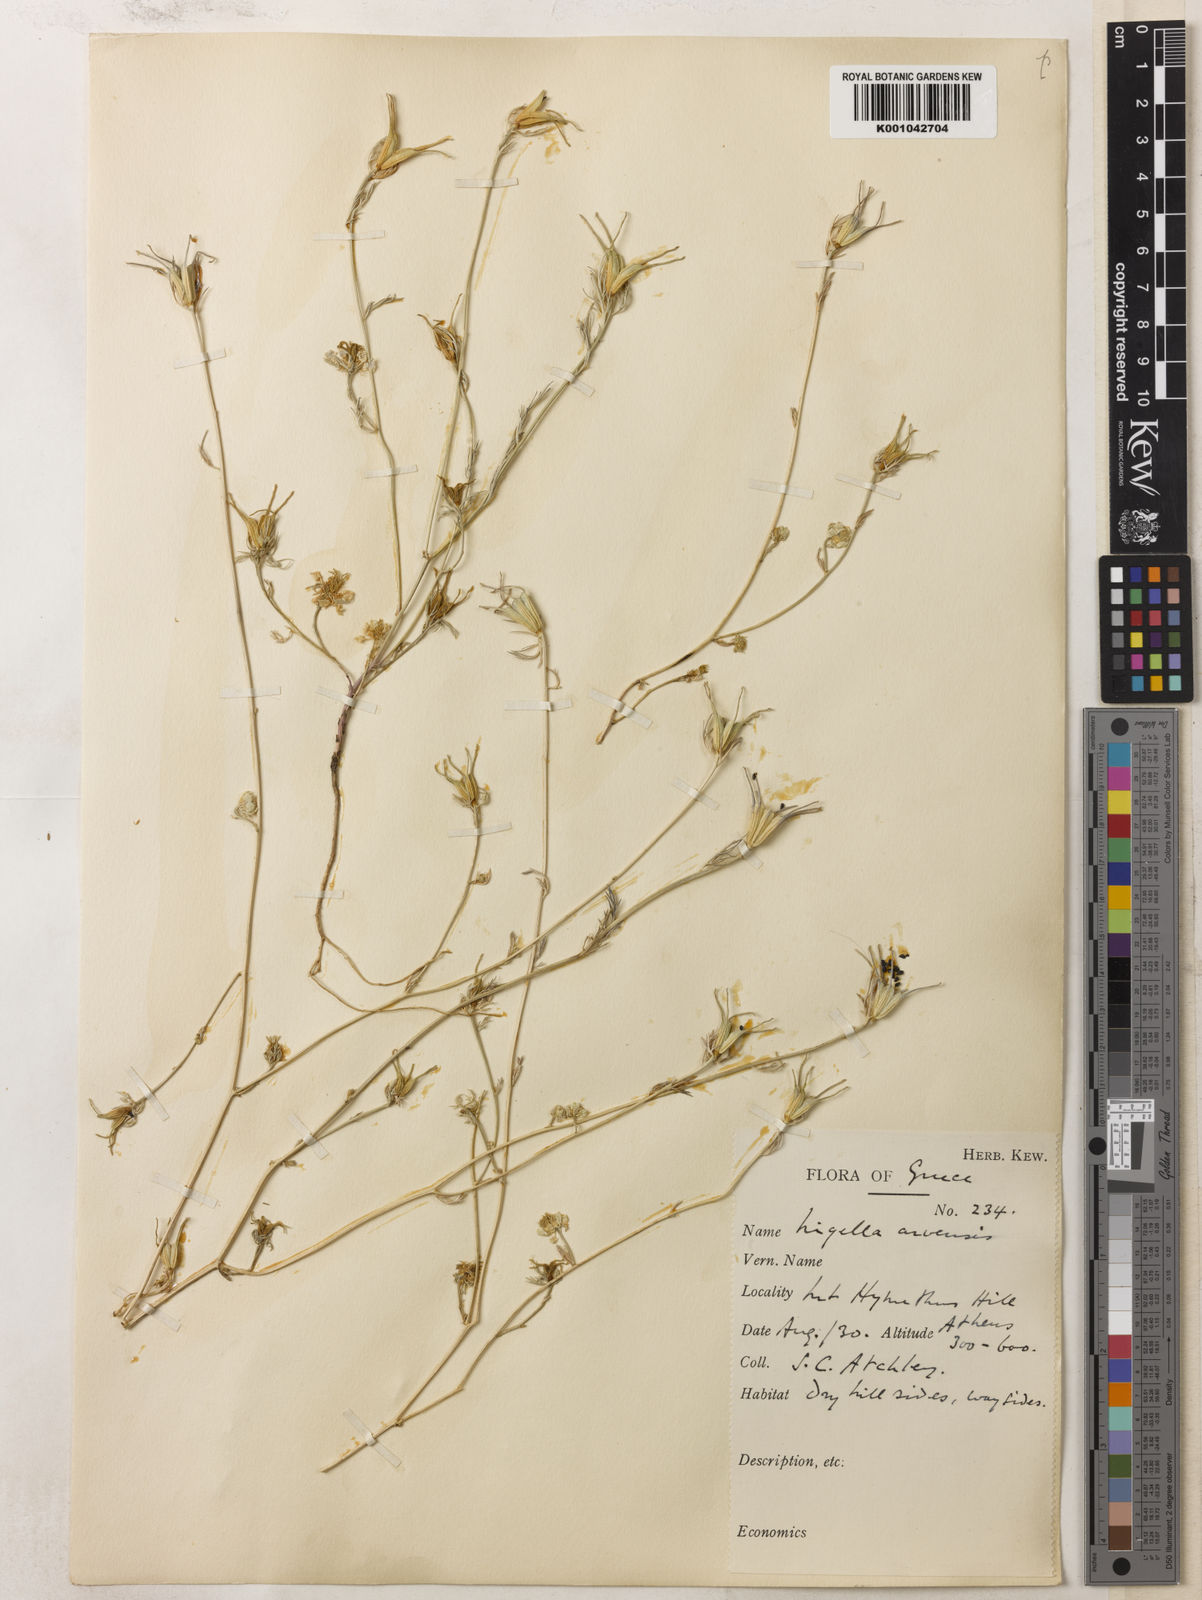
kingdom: Plantae
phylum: Tracheophyta
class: Magnoliopsida
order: Ranunculales
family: Ranunculaceae
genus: Nigella
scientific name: Nigella arvensis
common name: Wild fennel-flower
